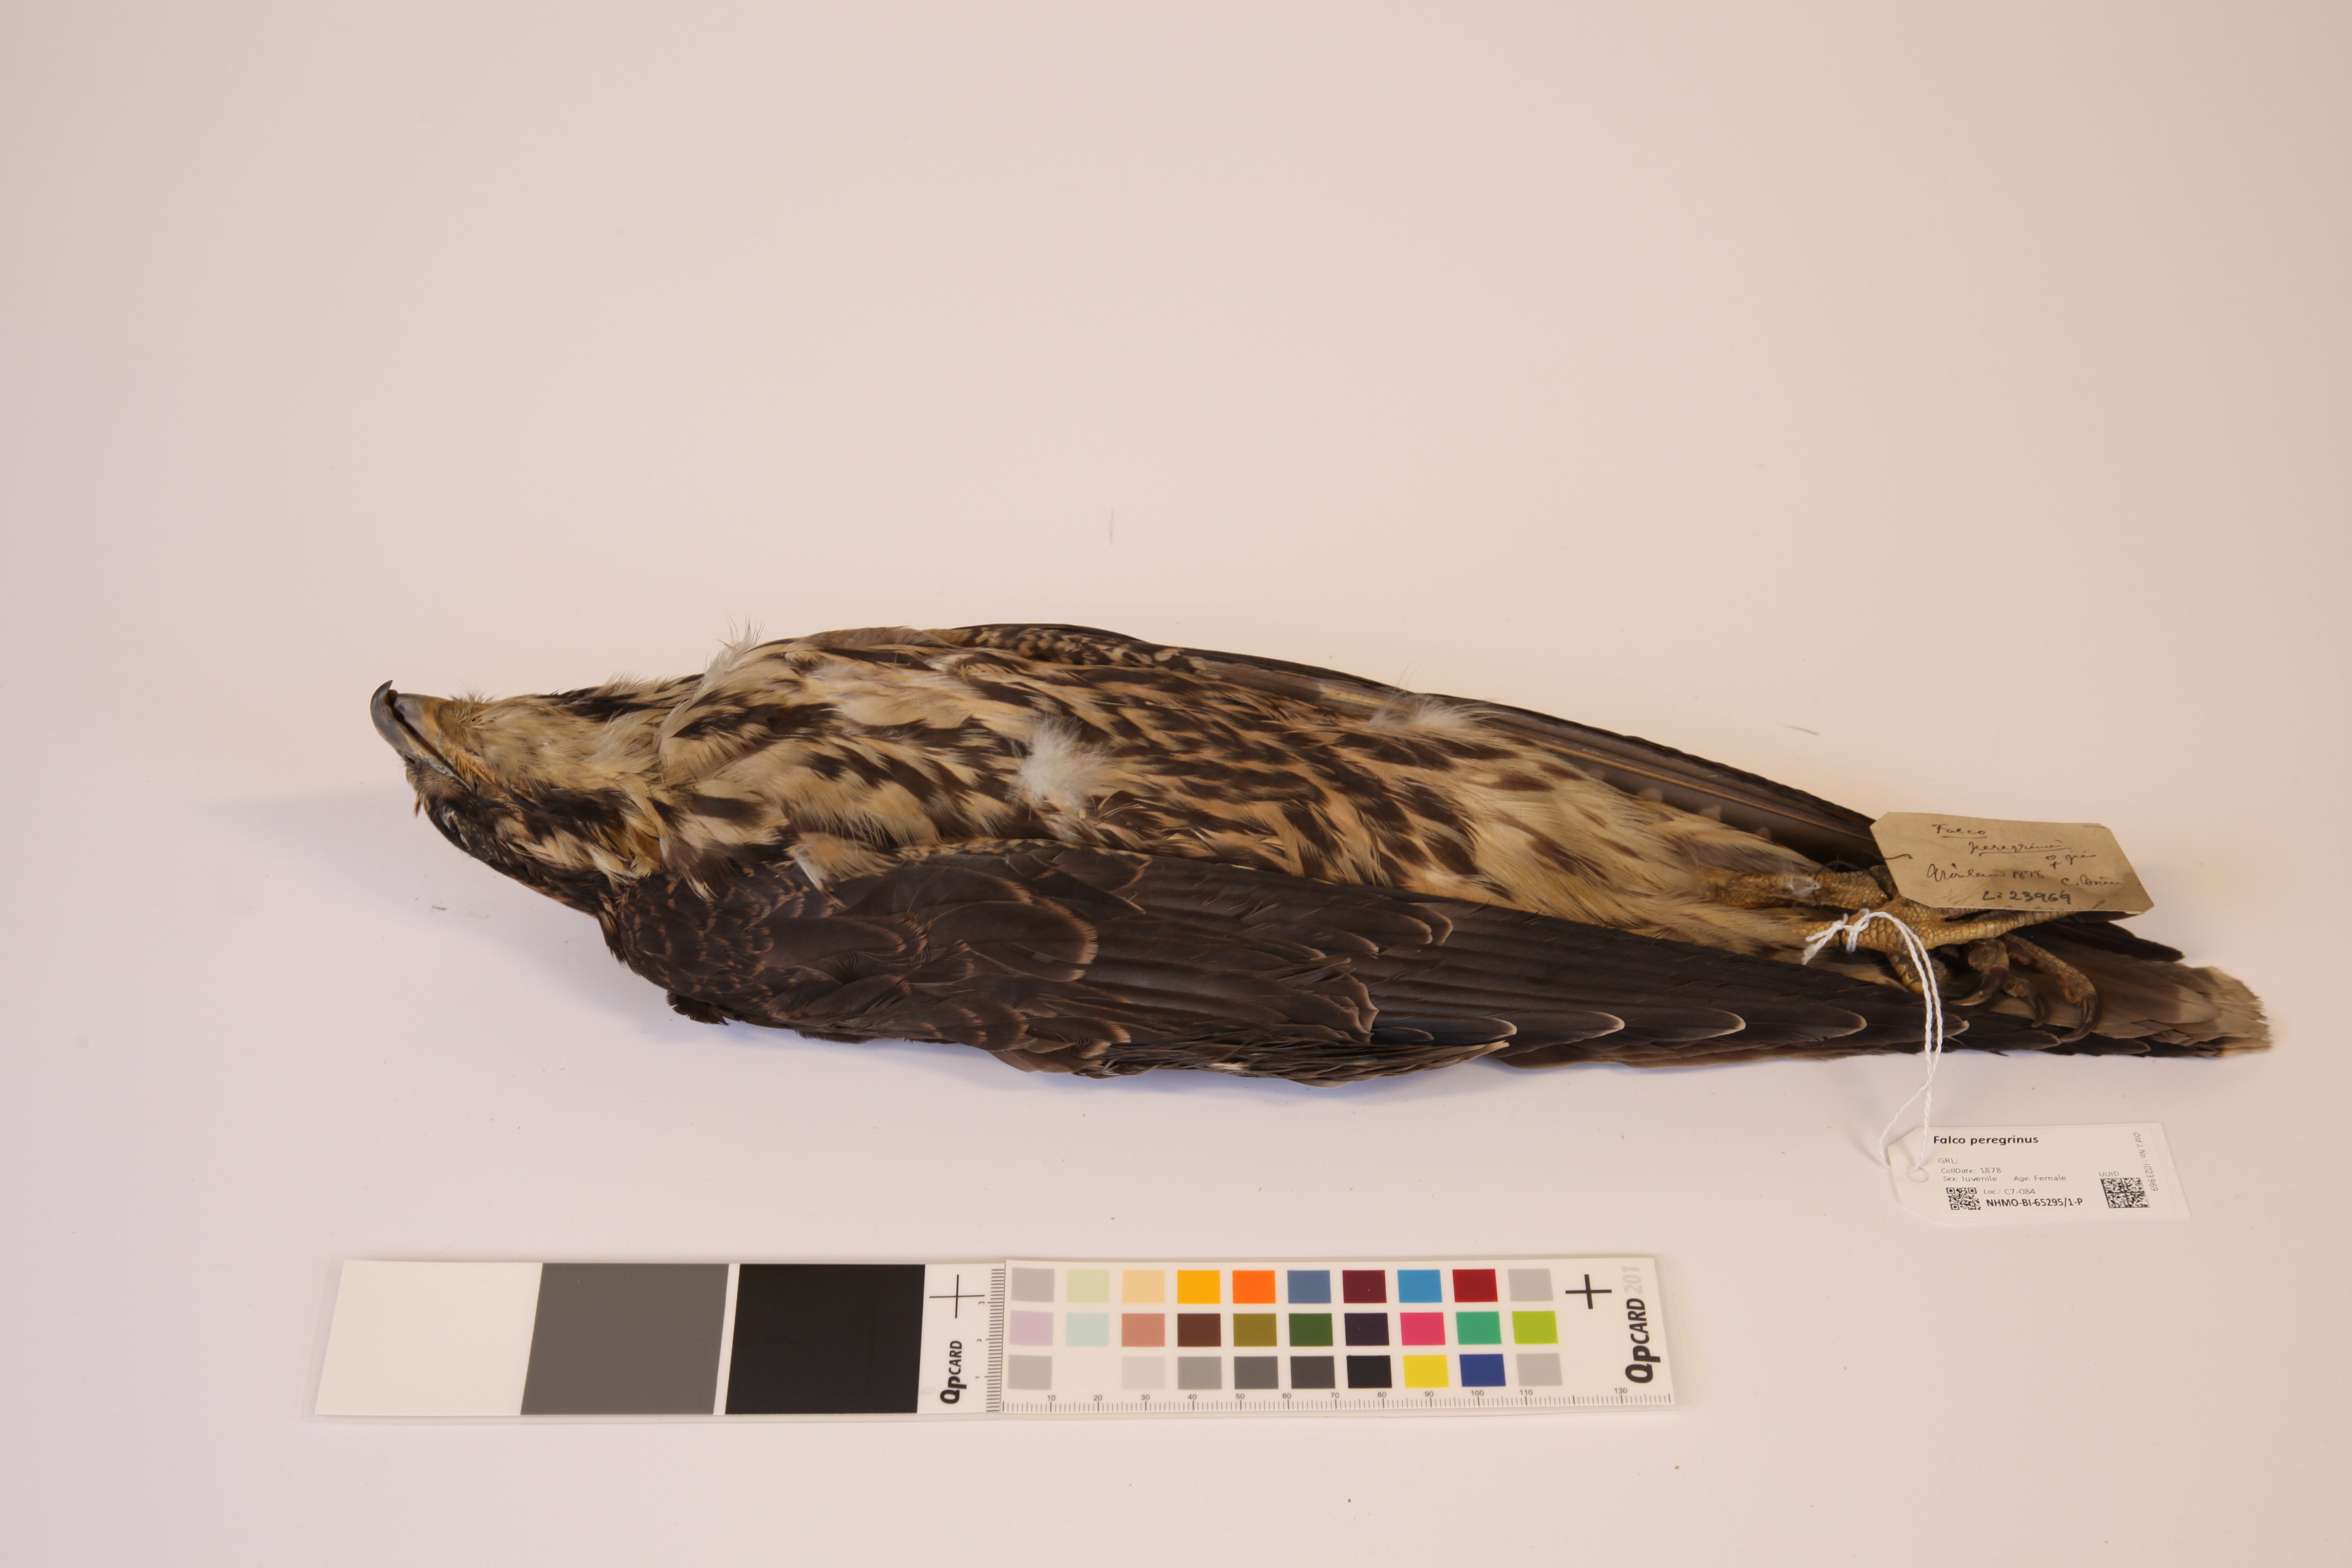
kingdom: Animalia
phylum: Chordata
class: Aves
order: Falconiformes
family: Falconidae
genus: Falco
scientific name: Falco peregrinus
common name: Peregrine falcon
